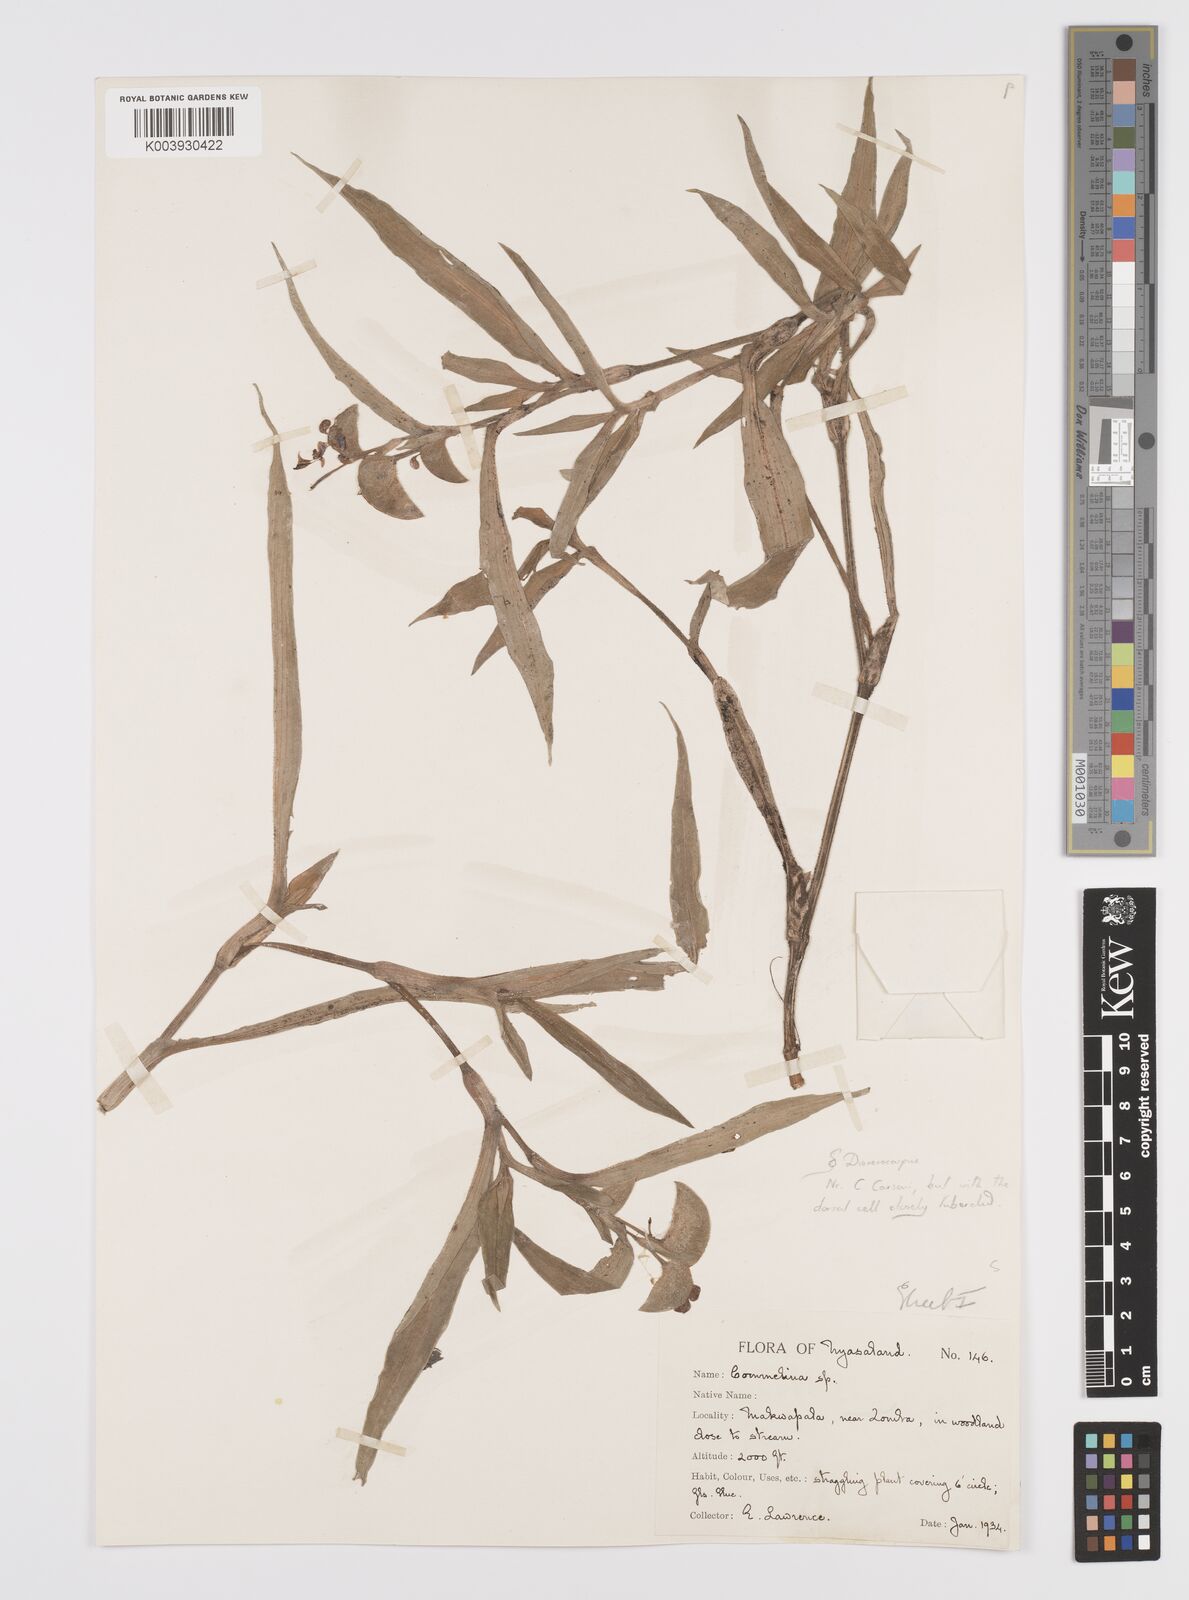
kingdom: Plantae
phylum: Tracheophyta
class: Liliopsida
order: Commelinales
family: Commelinaceae
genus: Commelina
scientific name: Commelina zambesica
